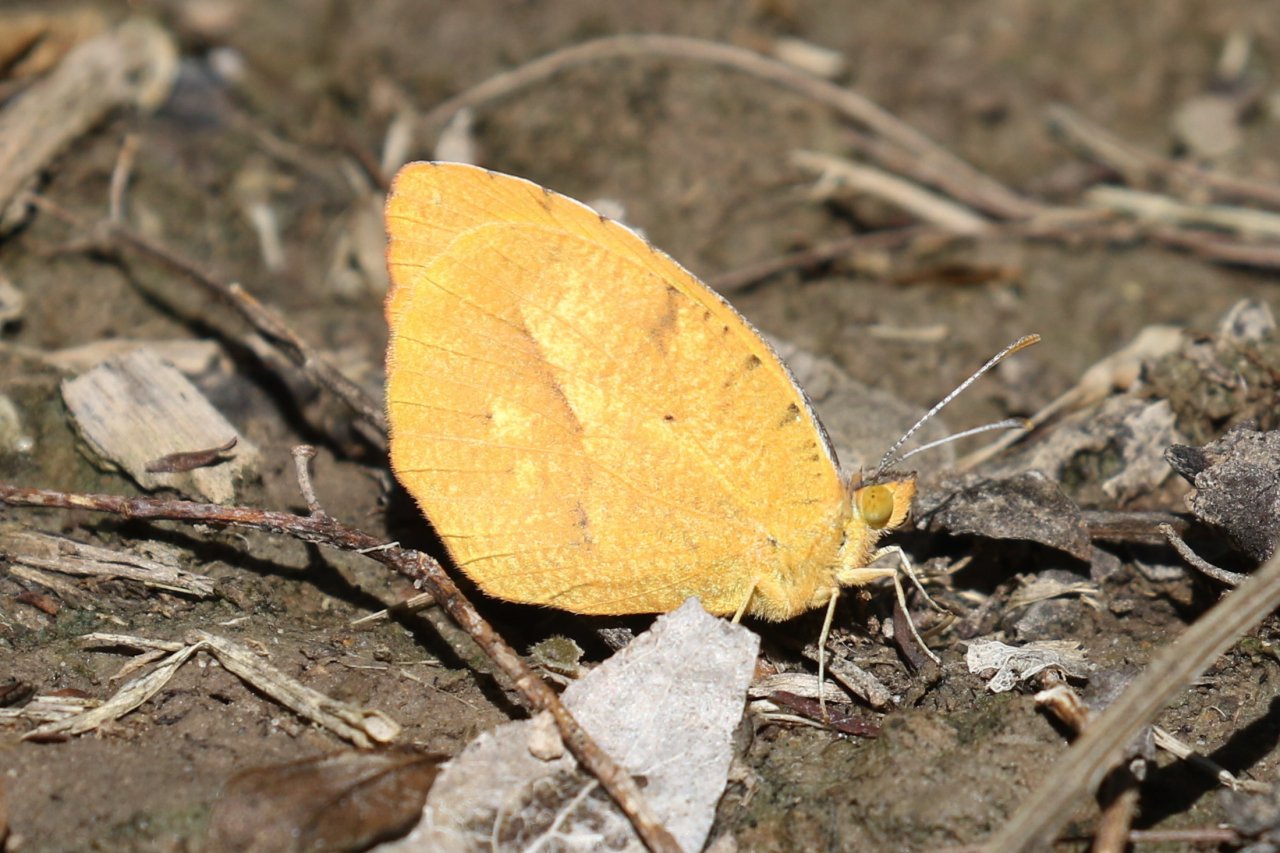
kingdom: Animalia
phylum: Arthropoda
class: Insecta
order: Lepidoptera
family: Pieridae
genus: Abaeis
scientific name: Abaeis nicippe
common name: Sleepy Orange
